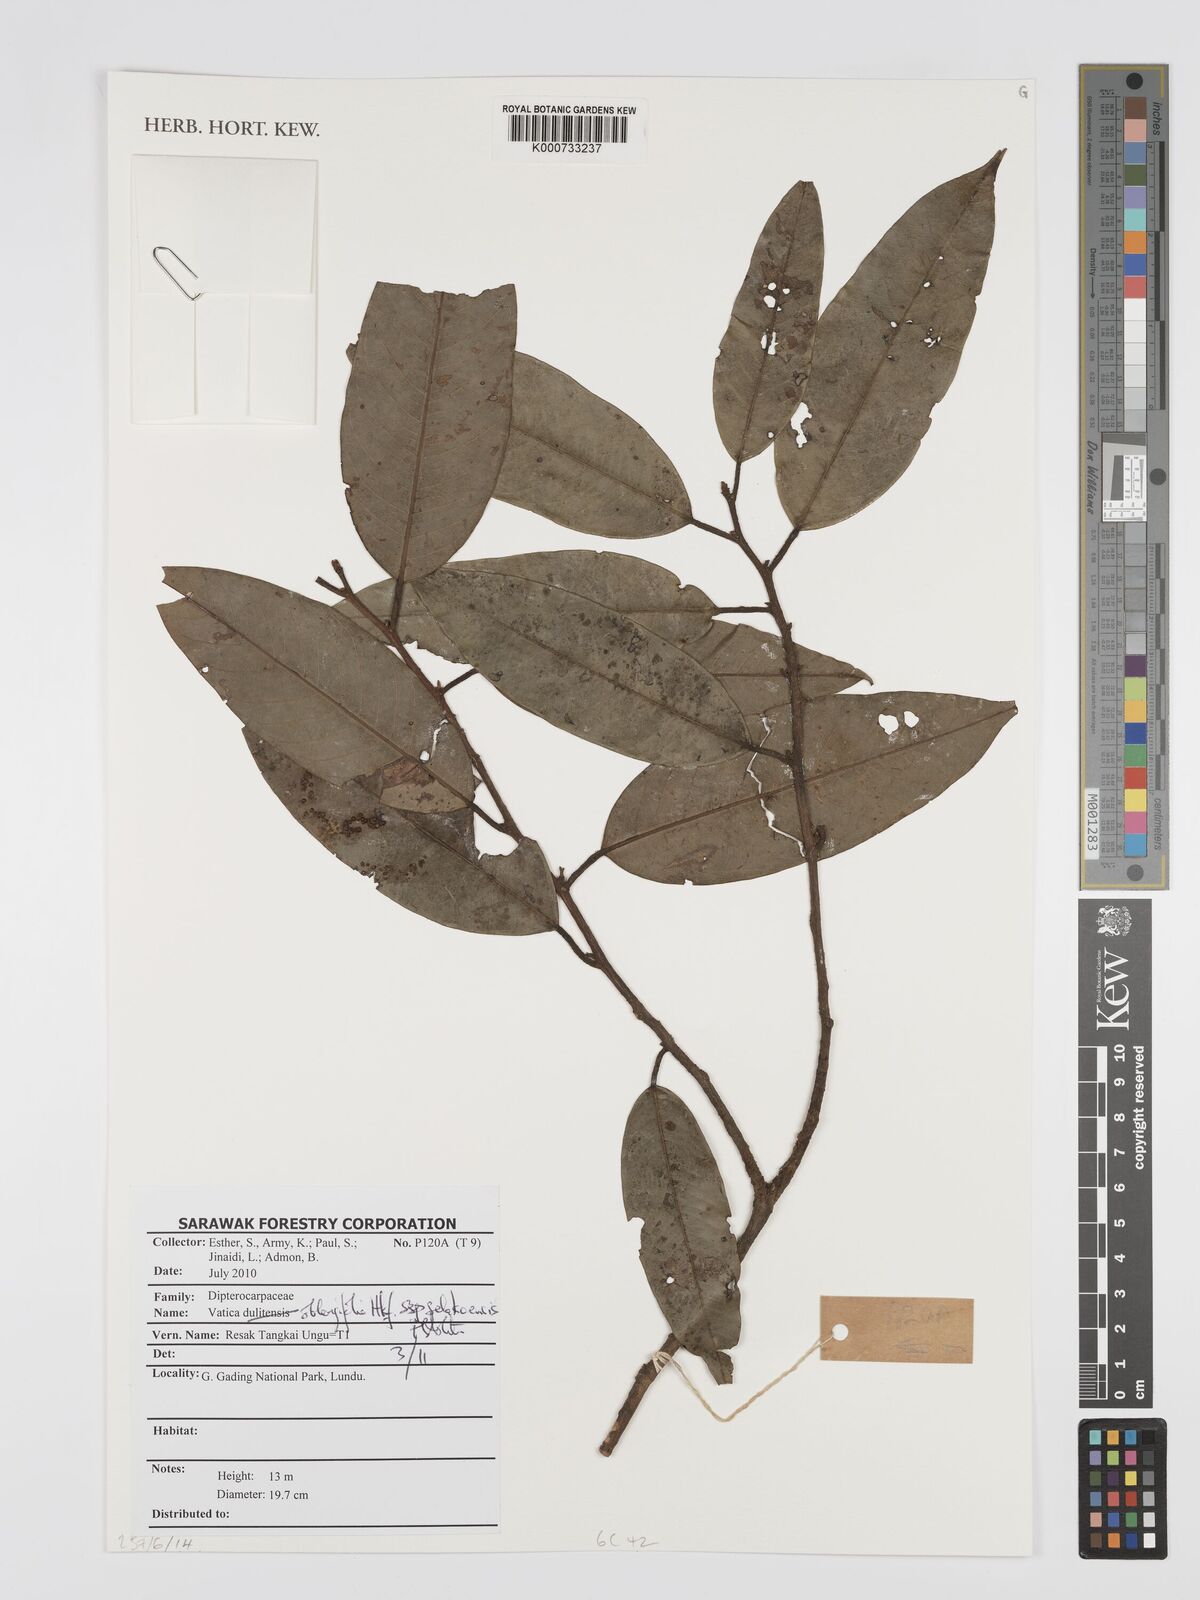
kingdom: Plantae
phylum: Tracheophyta
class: Magnoliopsida
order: Malvales
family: Dipterocarpaceae
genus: Vatica
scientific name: Vatica oblongifolia
